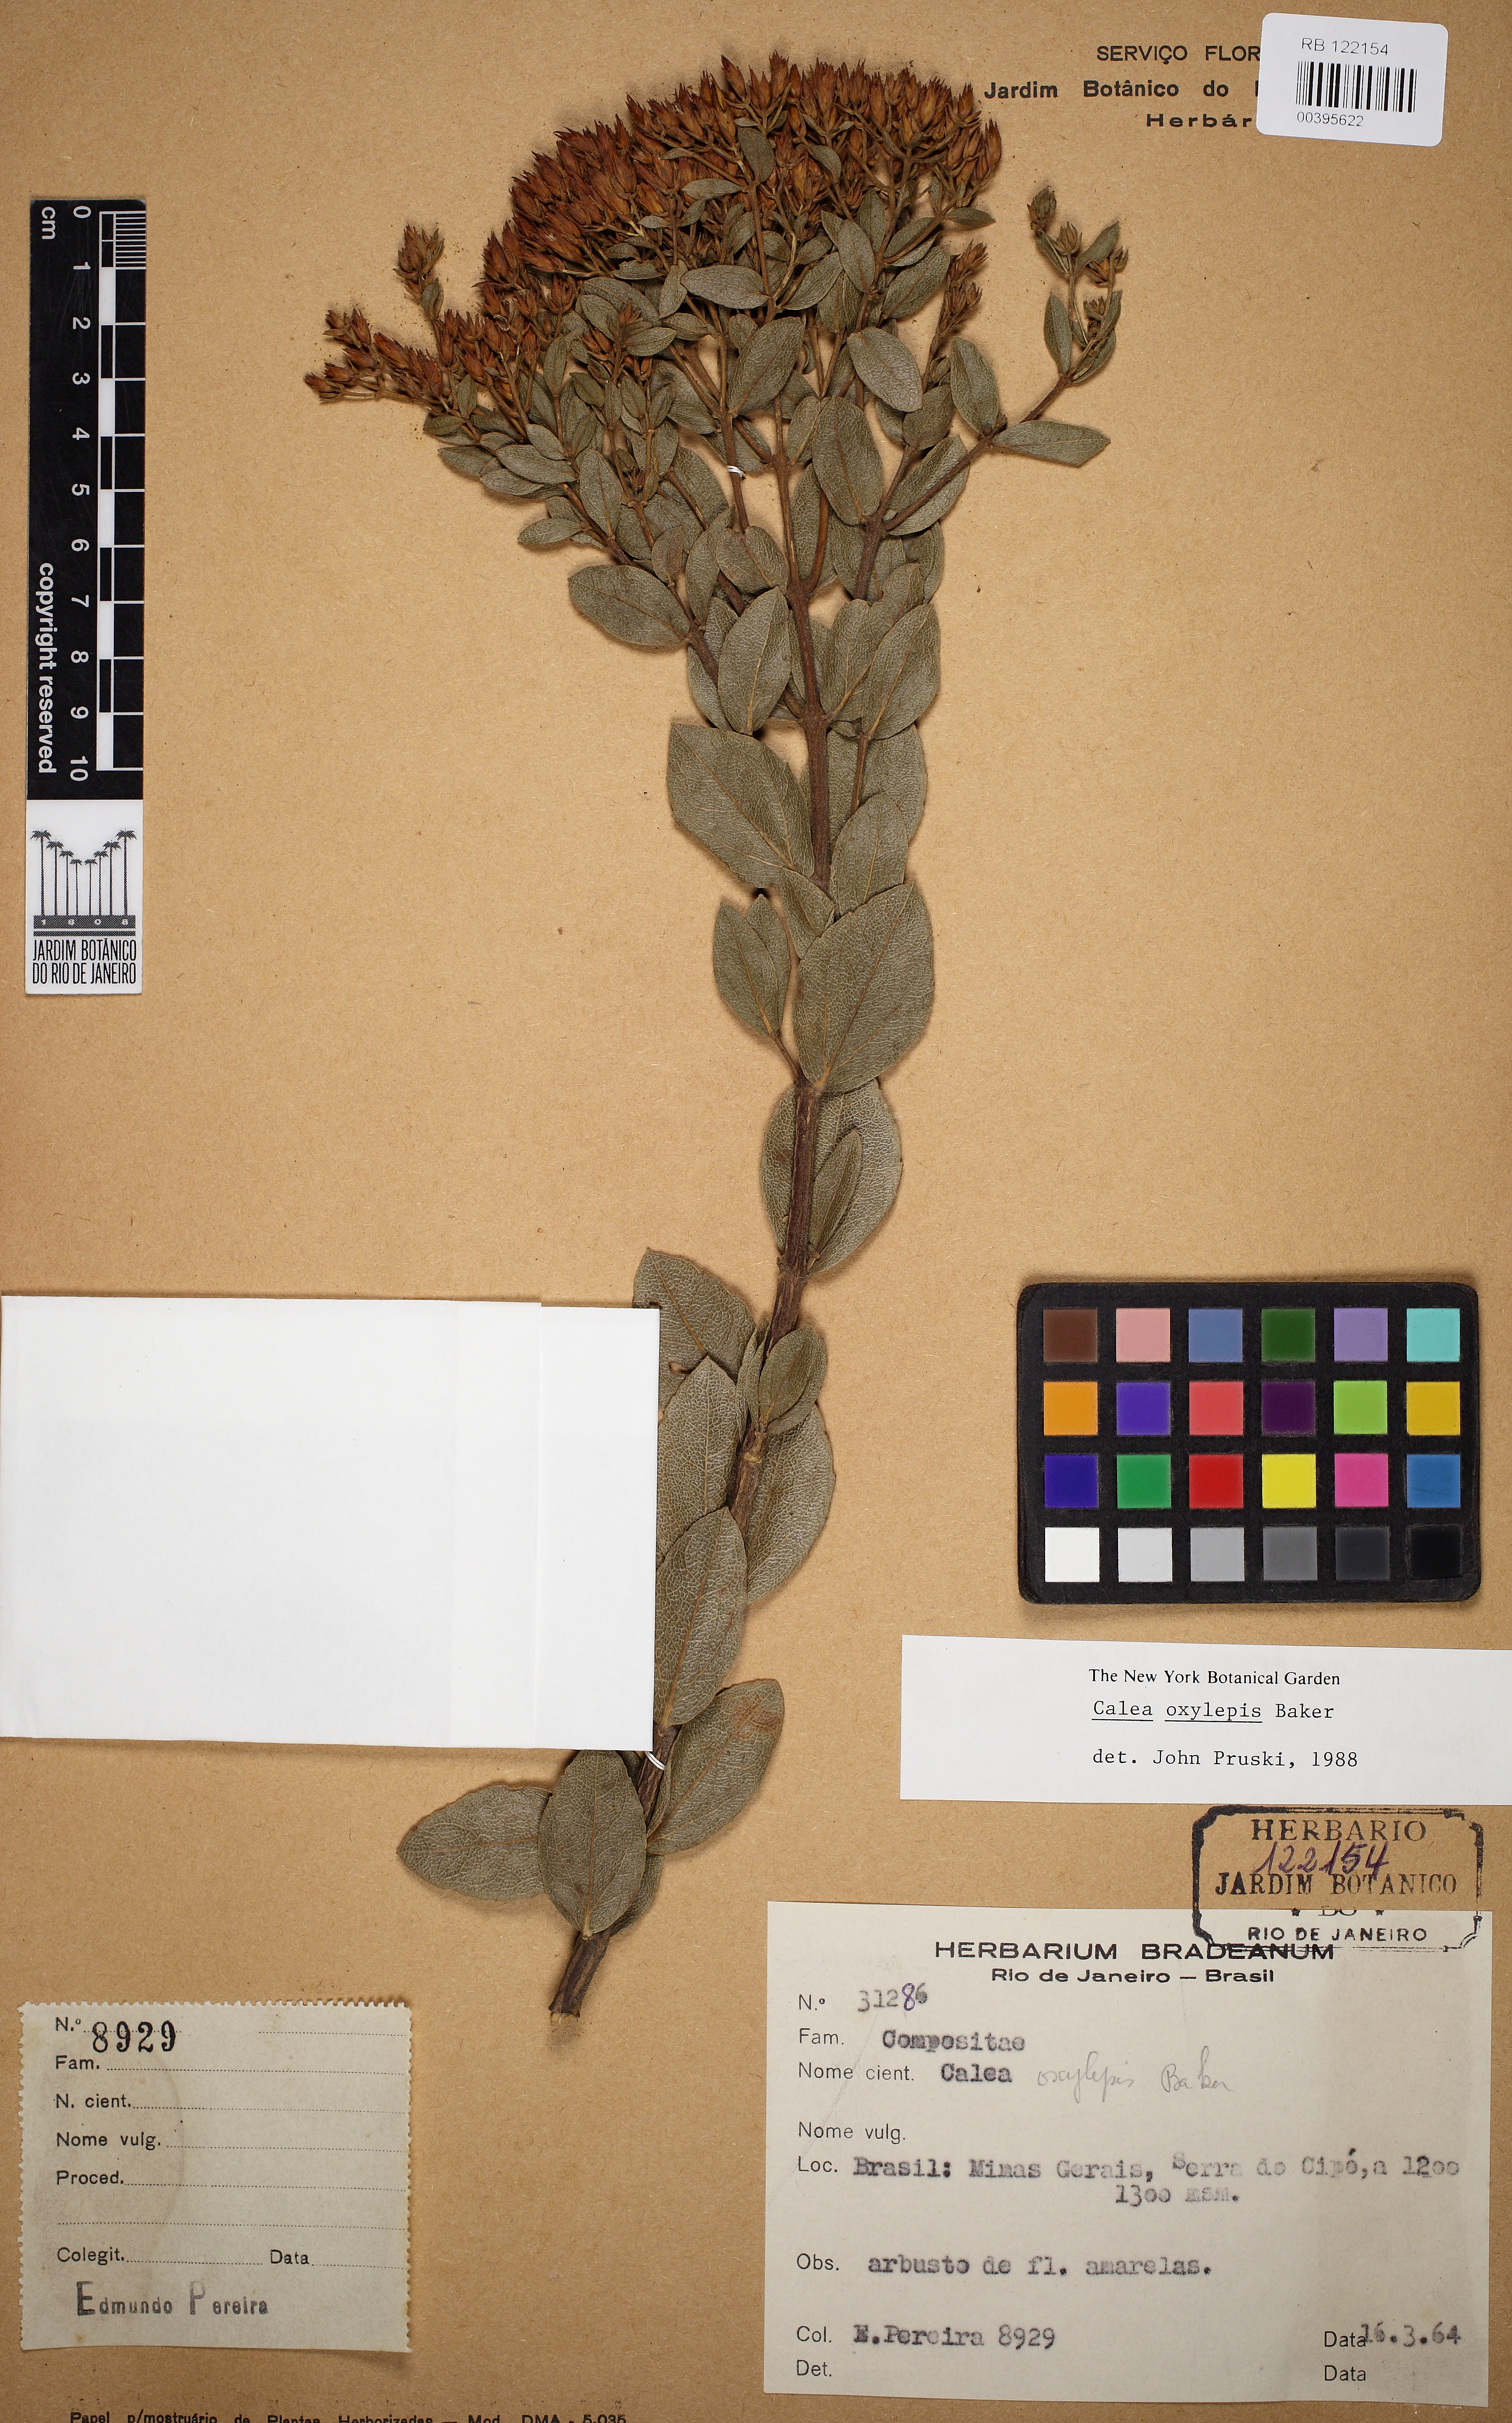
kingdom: Plantae
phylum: Tracheophyta
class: Magnoliopsida
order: Asterales
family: Asteraceae
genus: Calea
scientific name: Calea oxylepis
